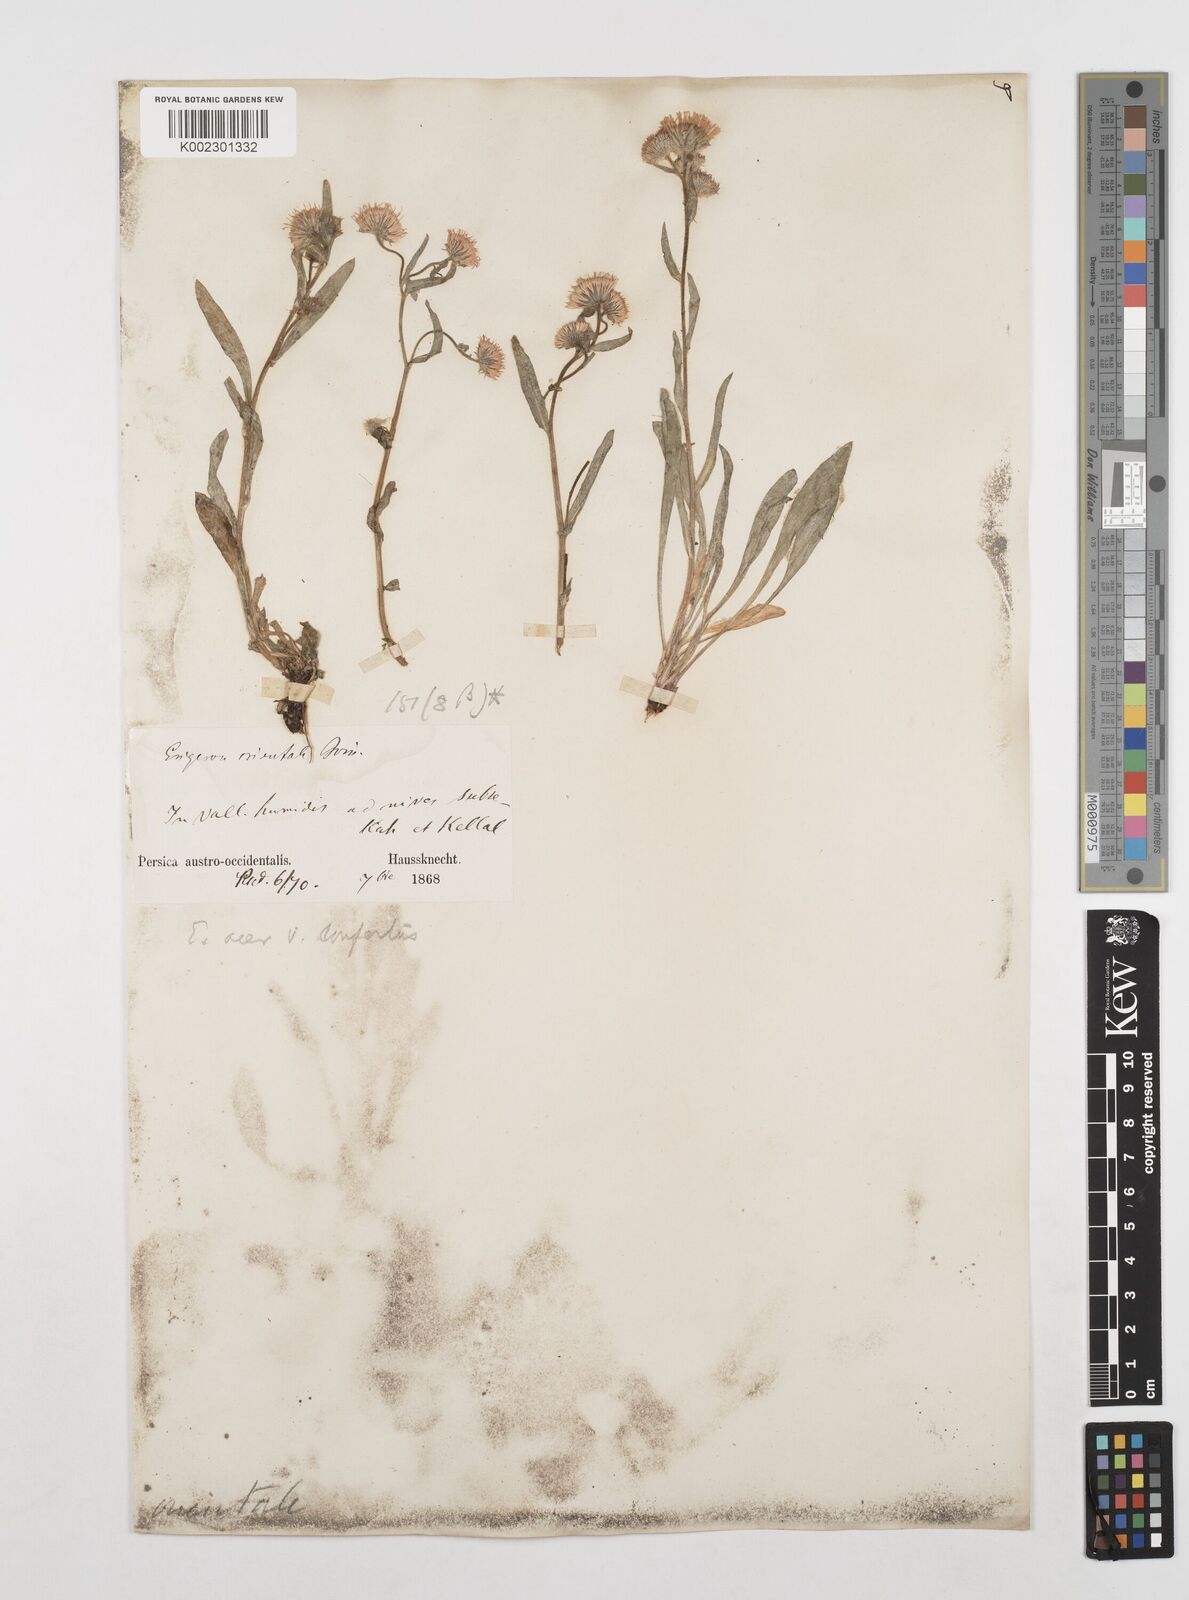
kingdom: Plantae
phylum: Tracheophyta
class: Magnoliopsida
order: Asterales
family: Asteraceae
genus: Erigeron
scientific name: Erigeron acris
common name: Blue fleabane
